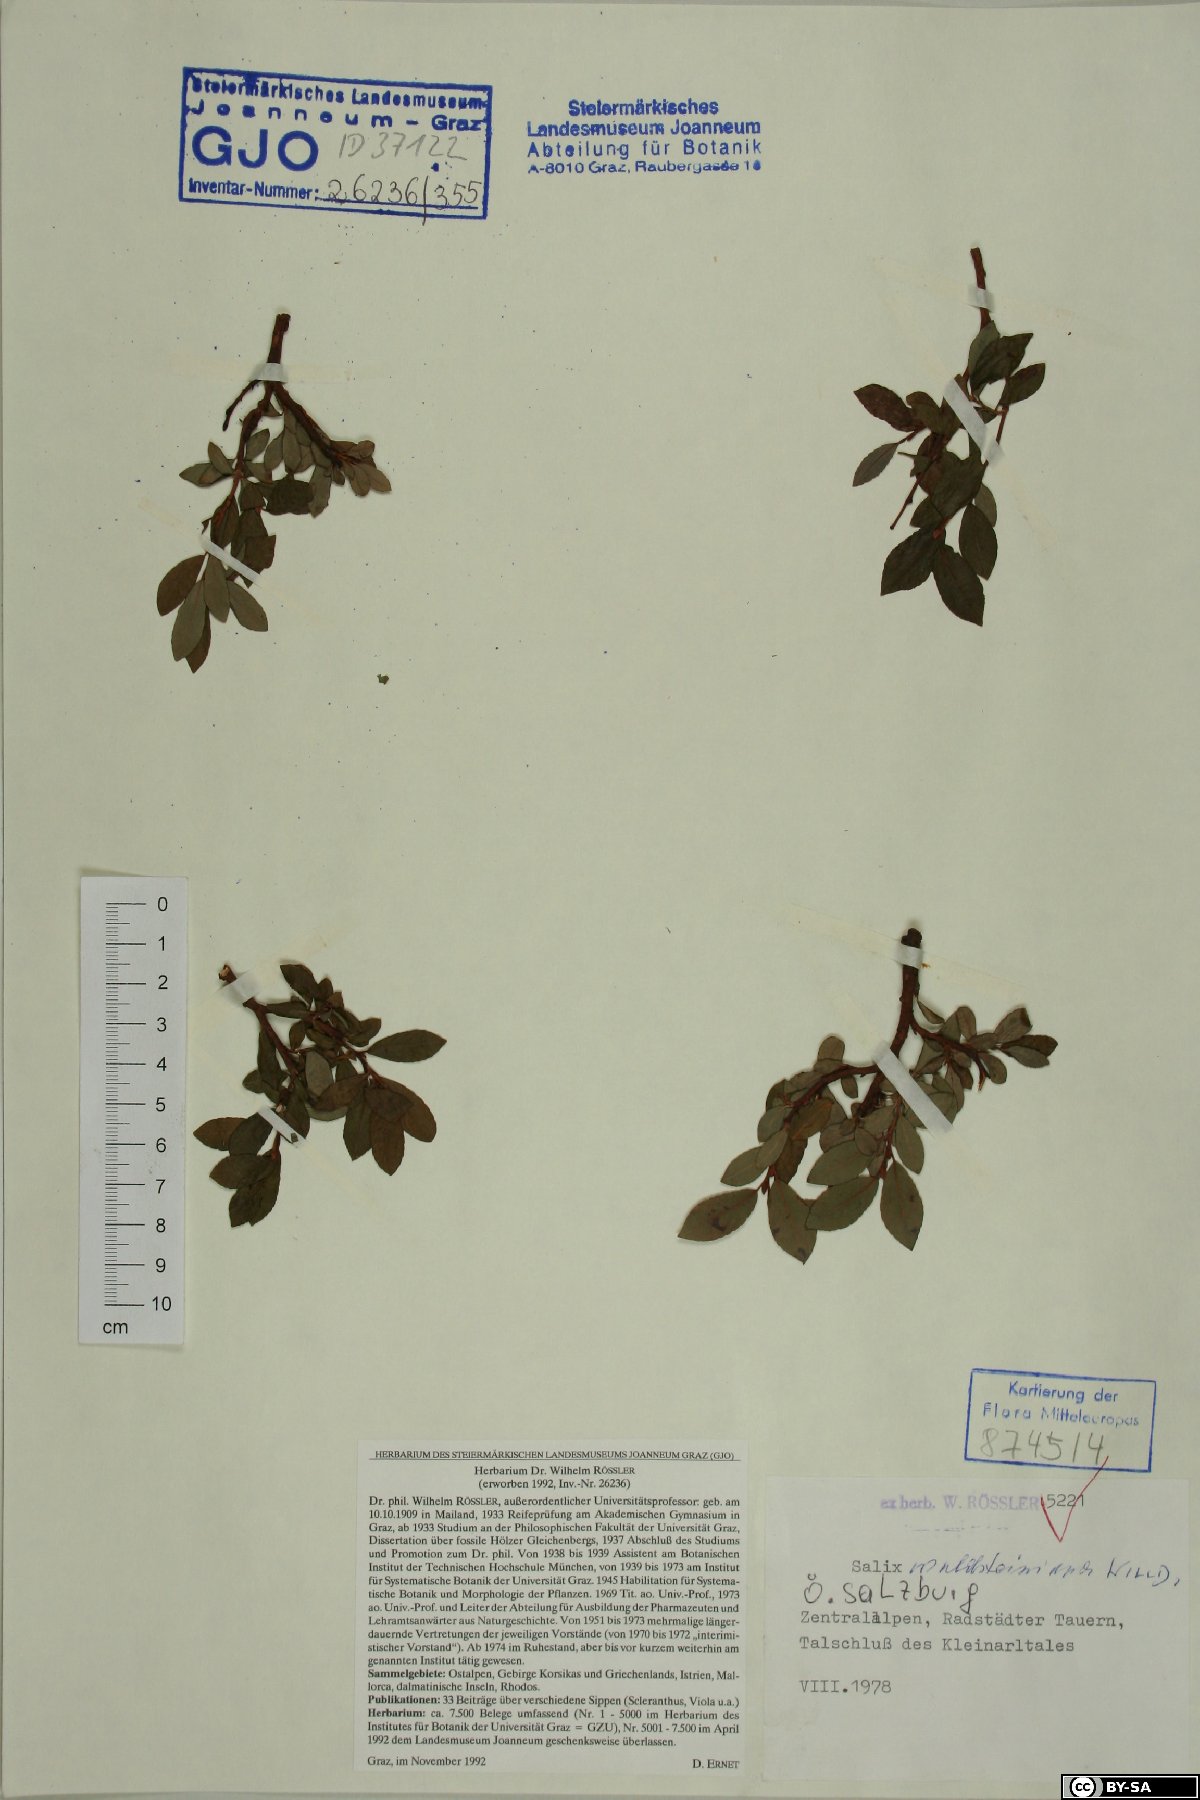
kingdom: Plantae
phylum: Tracheophyta
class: Magnoliopsida
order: Malpighiales
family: Salicaceae
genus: Salix
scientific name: Salix waldsteiniana
